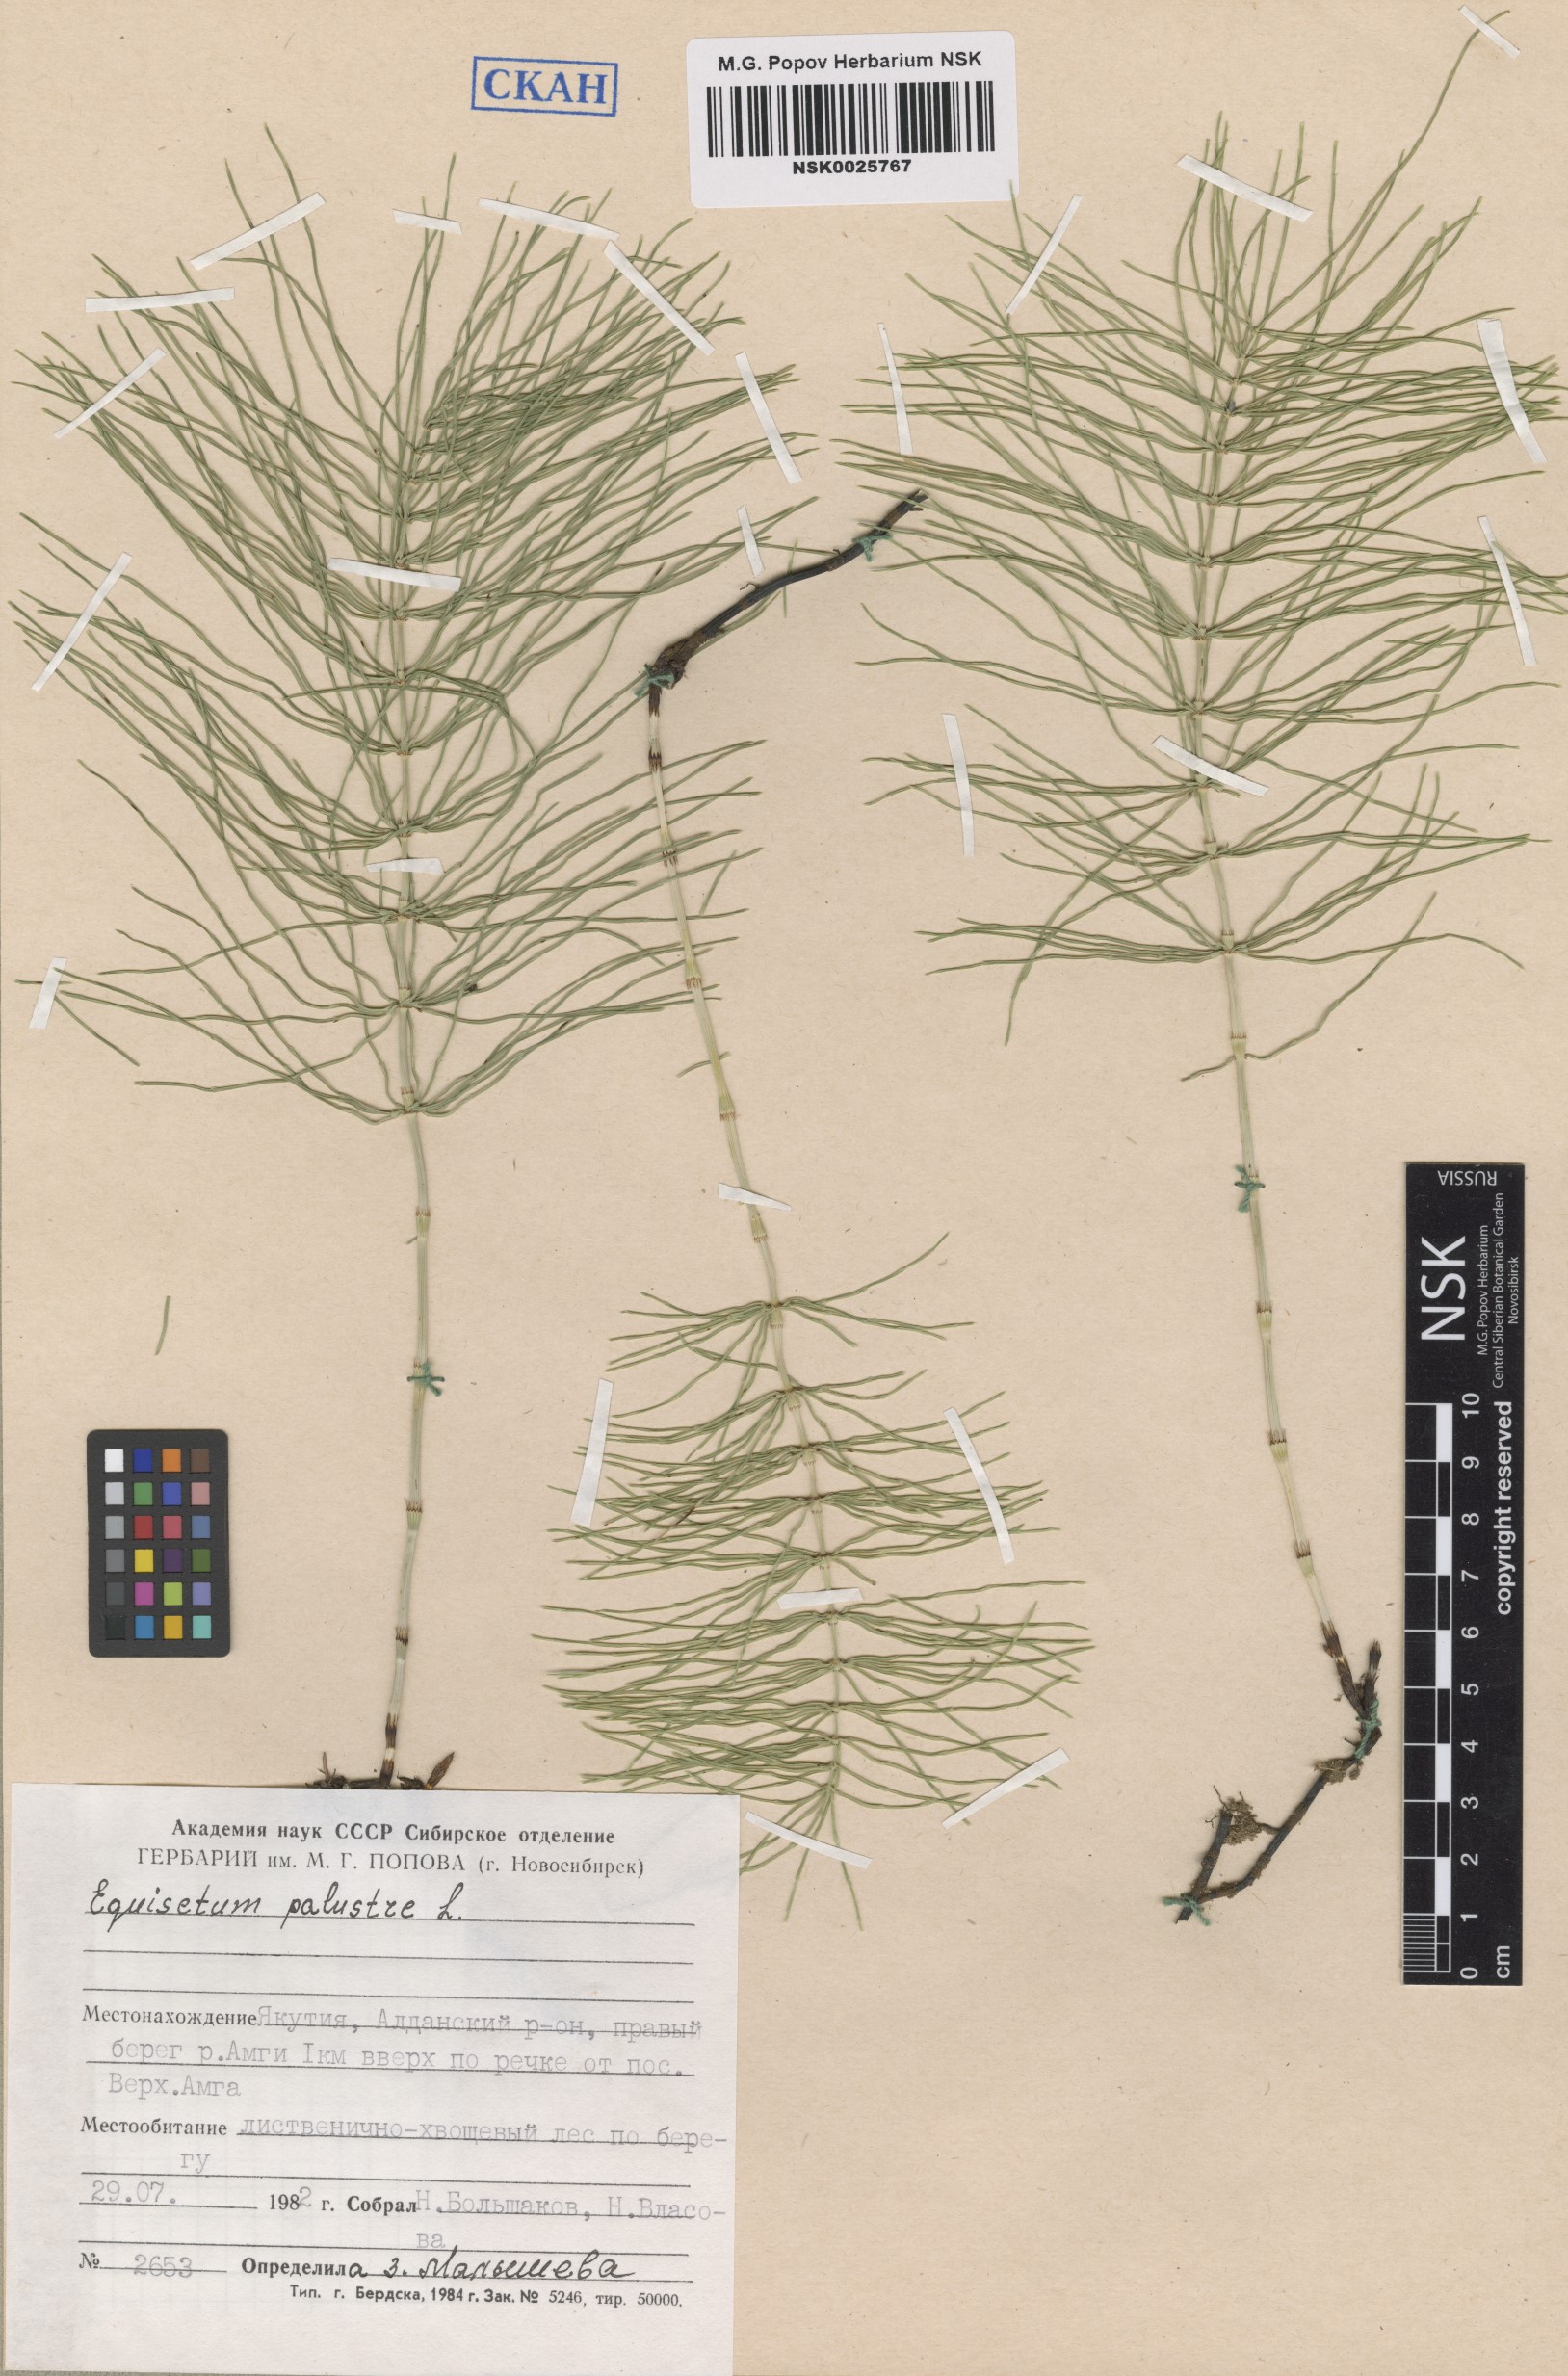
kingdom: Plantae
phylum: Tracheophyta
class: Polypodiopsida
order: Equisetales
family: Equisetaceae
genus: Equisetum
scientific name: Equisetum palustre
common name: Marsh horsetail
